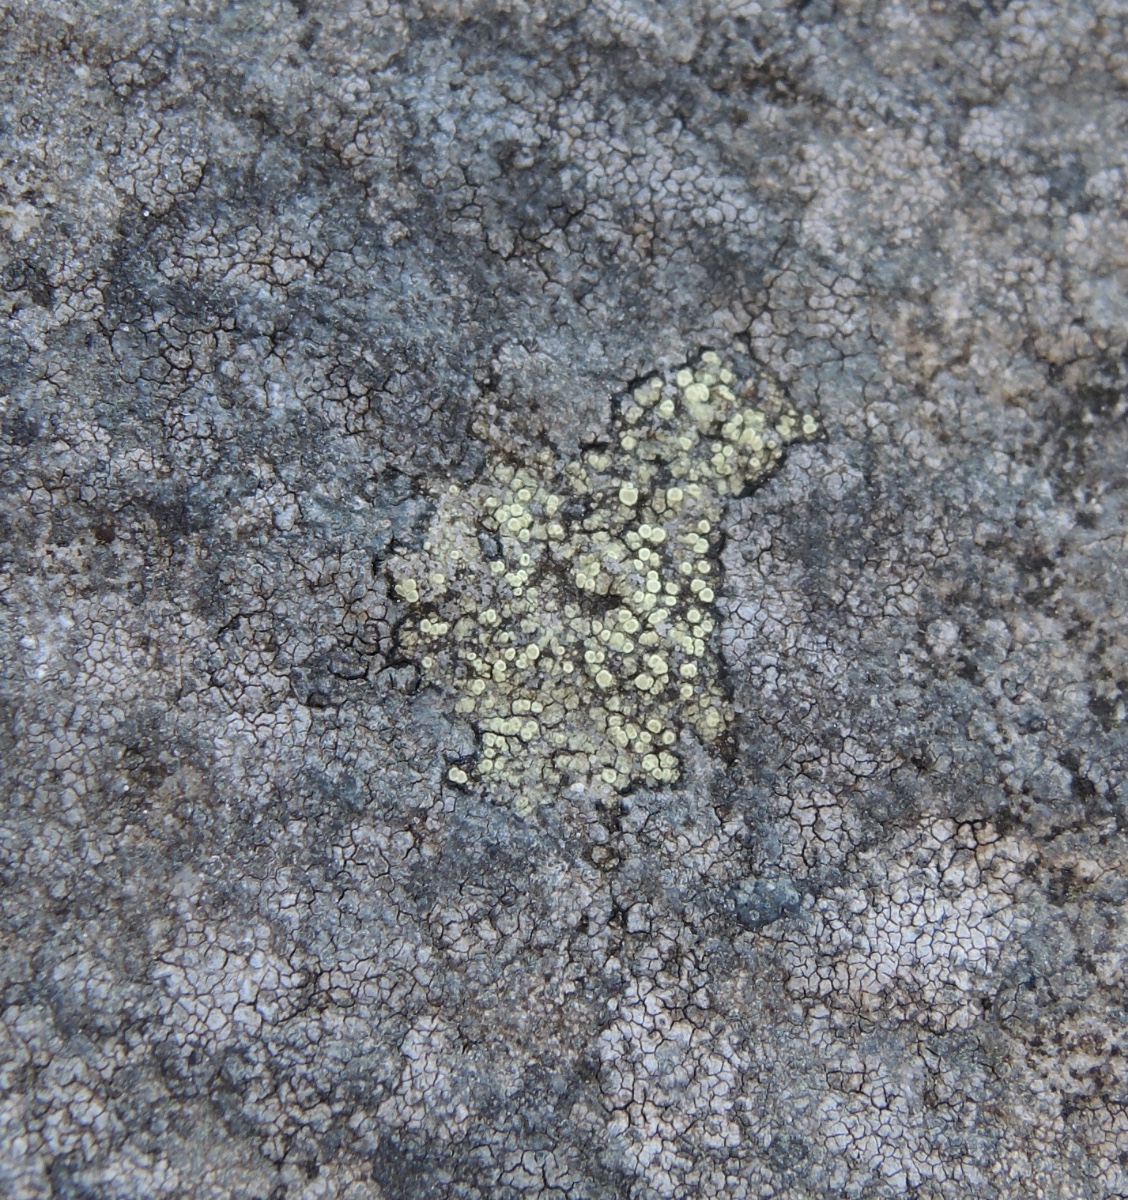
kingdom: Fungi
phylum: Ascomycota
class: Lecanoromycetes
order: Lecanorales
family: Lecanoraceae
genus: Lecanora
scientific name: Lecanora polytropa
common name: bleggrøn kantskivelav
